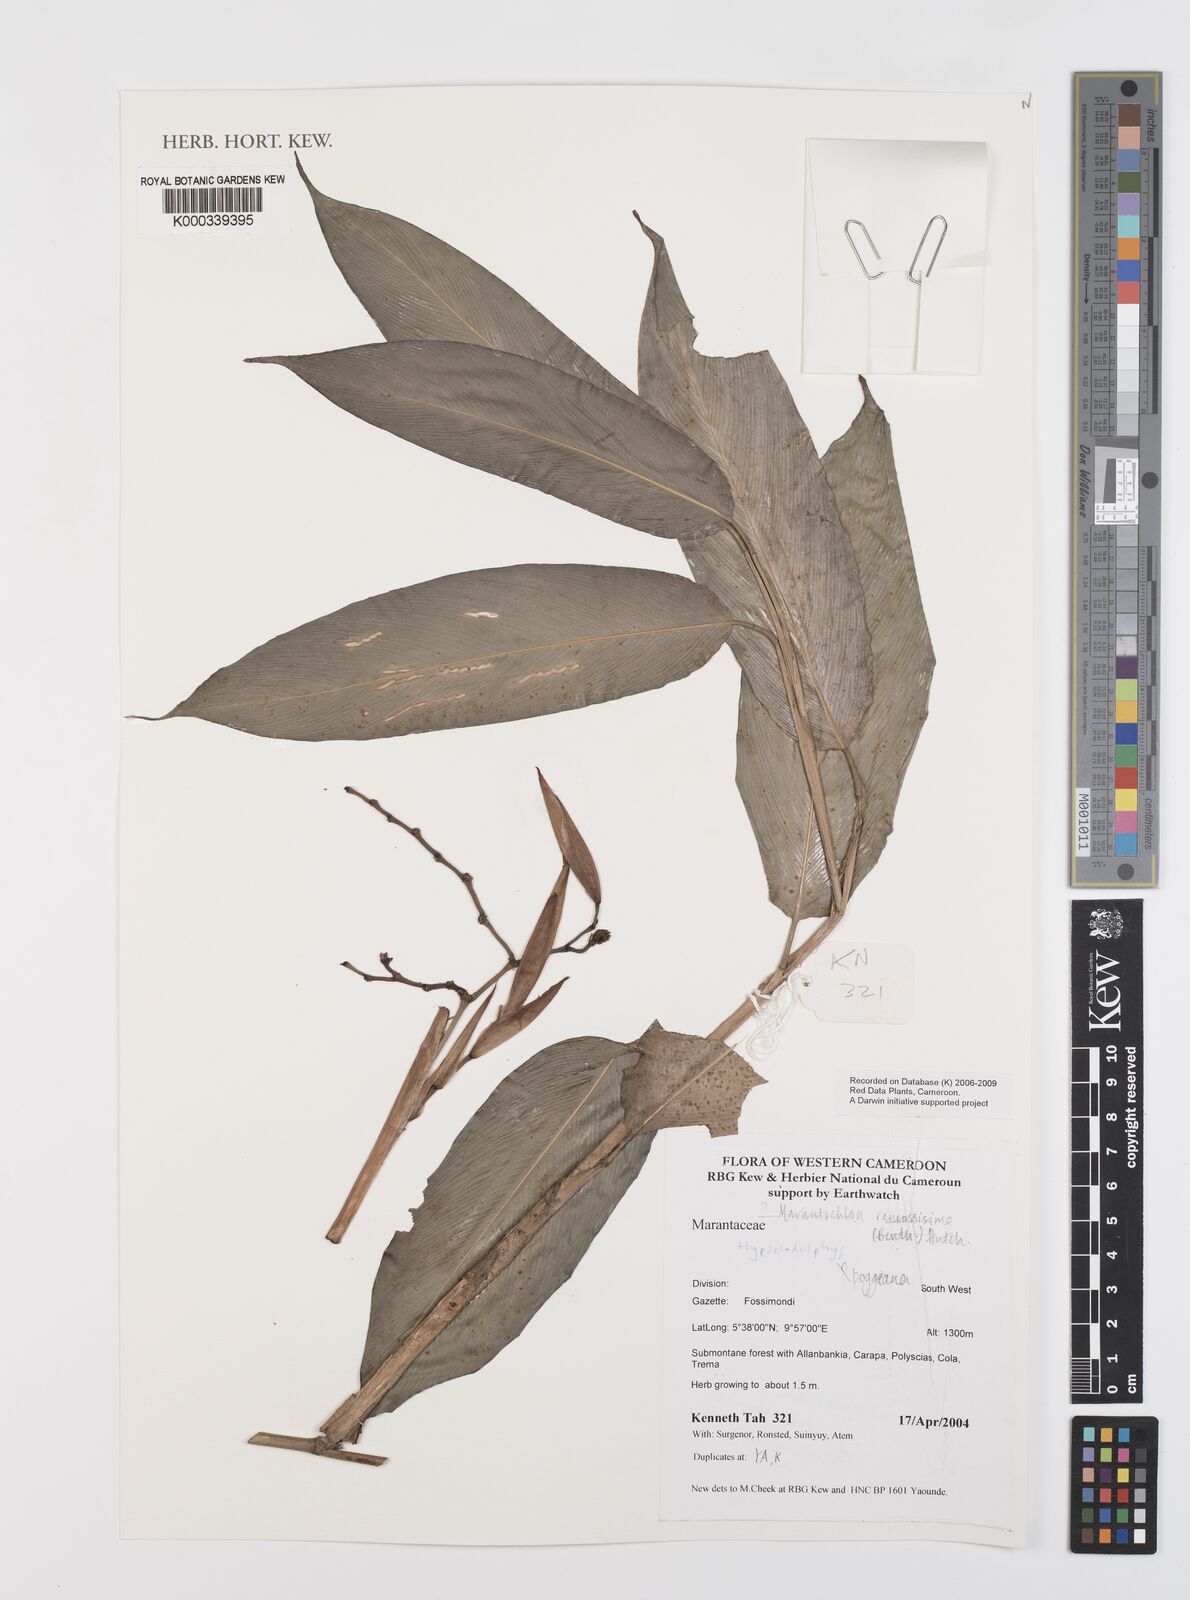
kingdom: Plantae
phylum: Tracheophyta
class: Liliopsida
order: Zingiberales
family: Marantaceae
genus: Hypselodelphys
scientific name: Hypselodelphys poggeana
